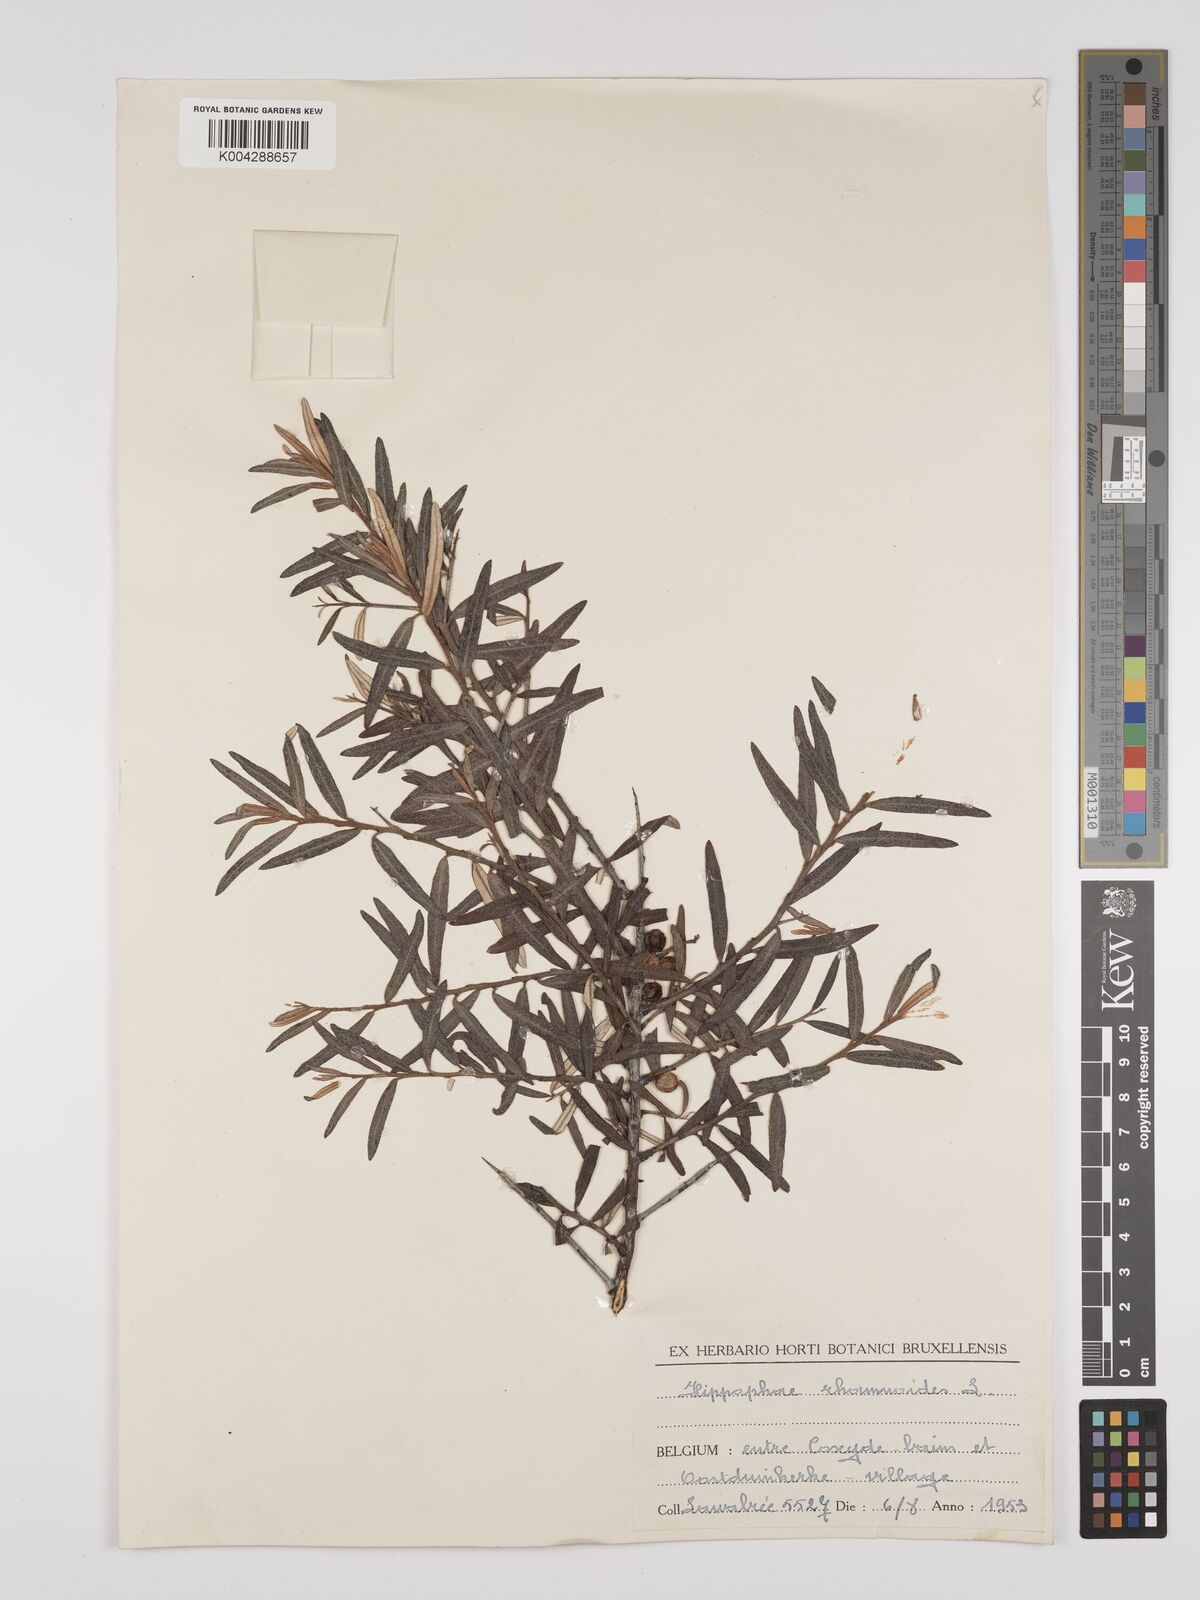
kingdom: Plantae
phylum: Tracheophyta
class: Magnoliopsida
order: Rosales
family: Elaeagnaceae
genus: Hippophae
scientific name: Hippophae rhamnoides
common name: Sea-buckthorn
